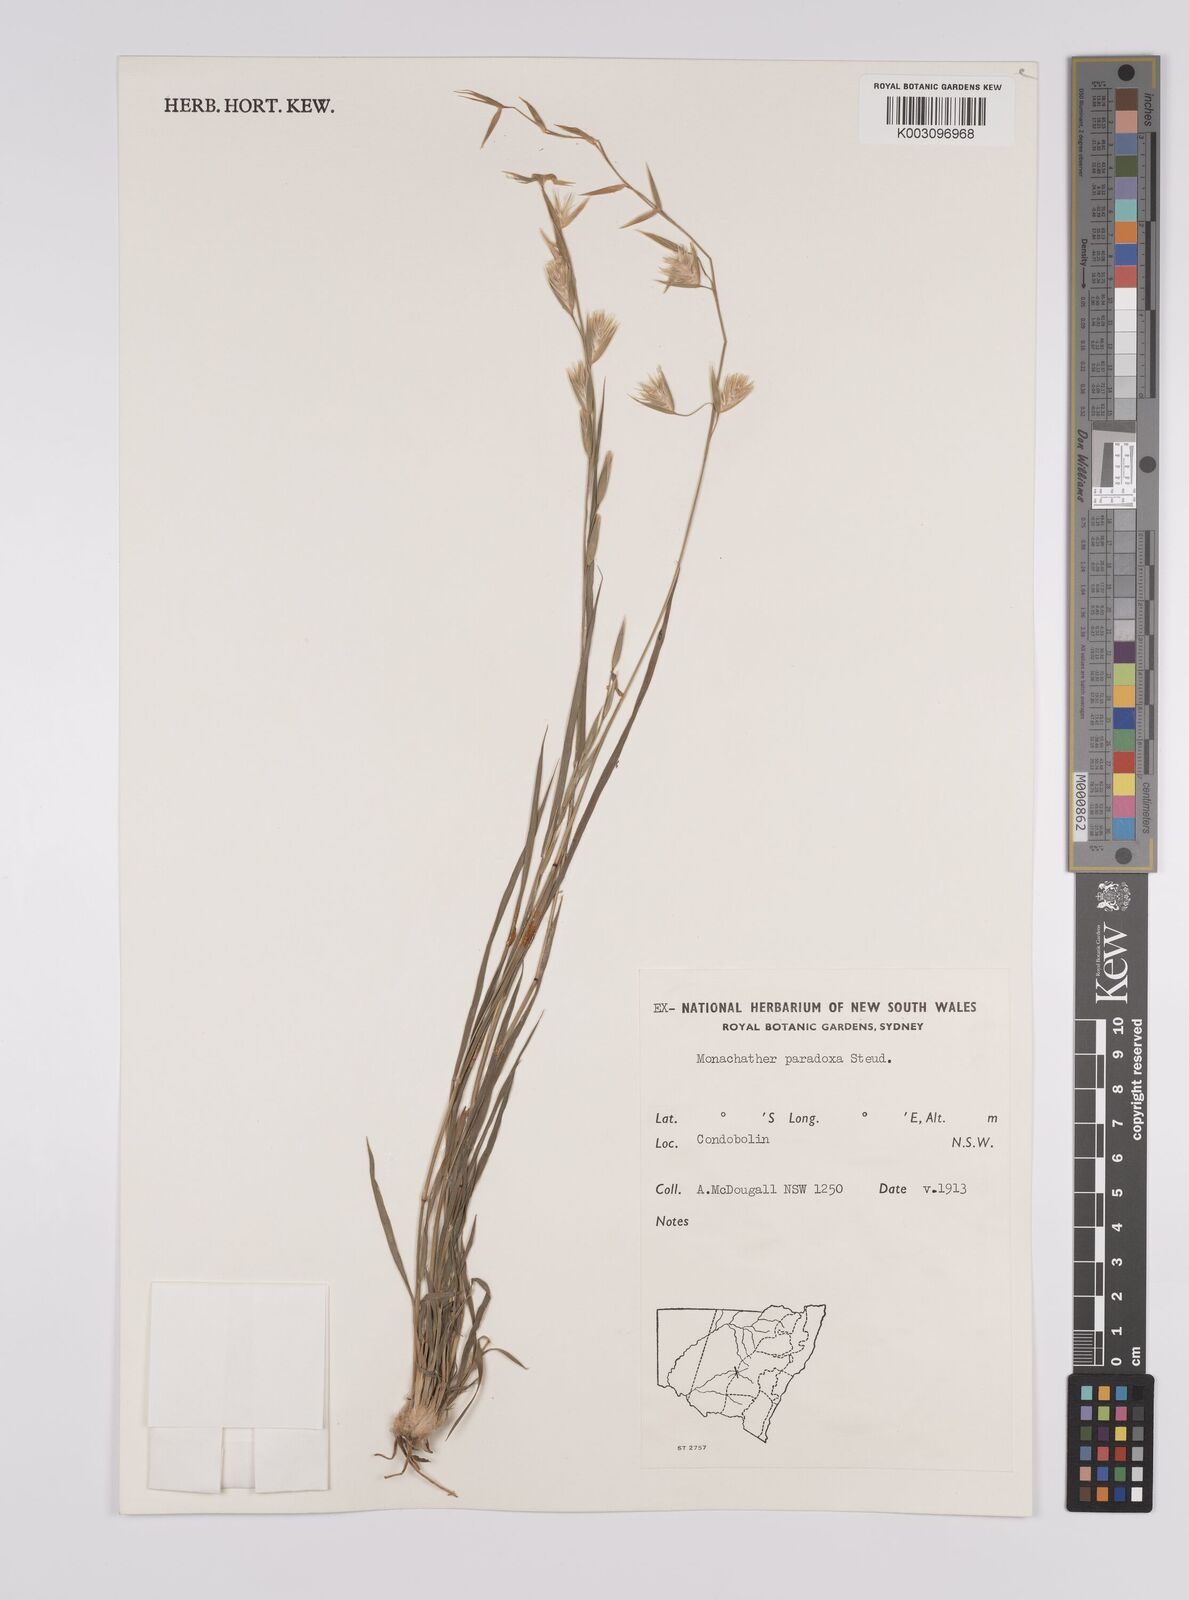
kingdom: Plantae
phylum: Tracheophyta
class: Liliopsida
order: Poales
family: Poaceae
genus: Monachather
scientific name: Monachather paradoxus
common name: Bandicoot grass
